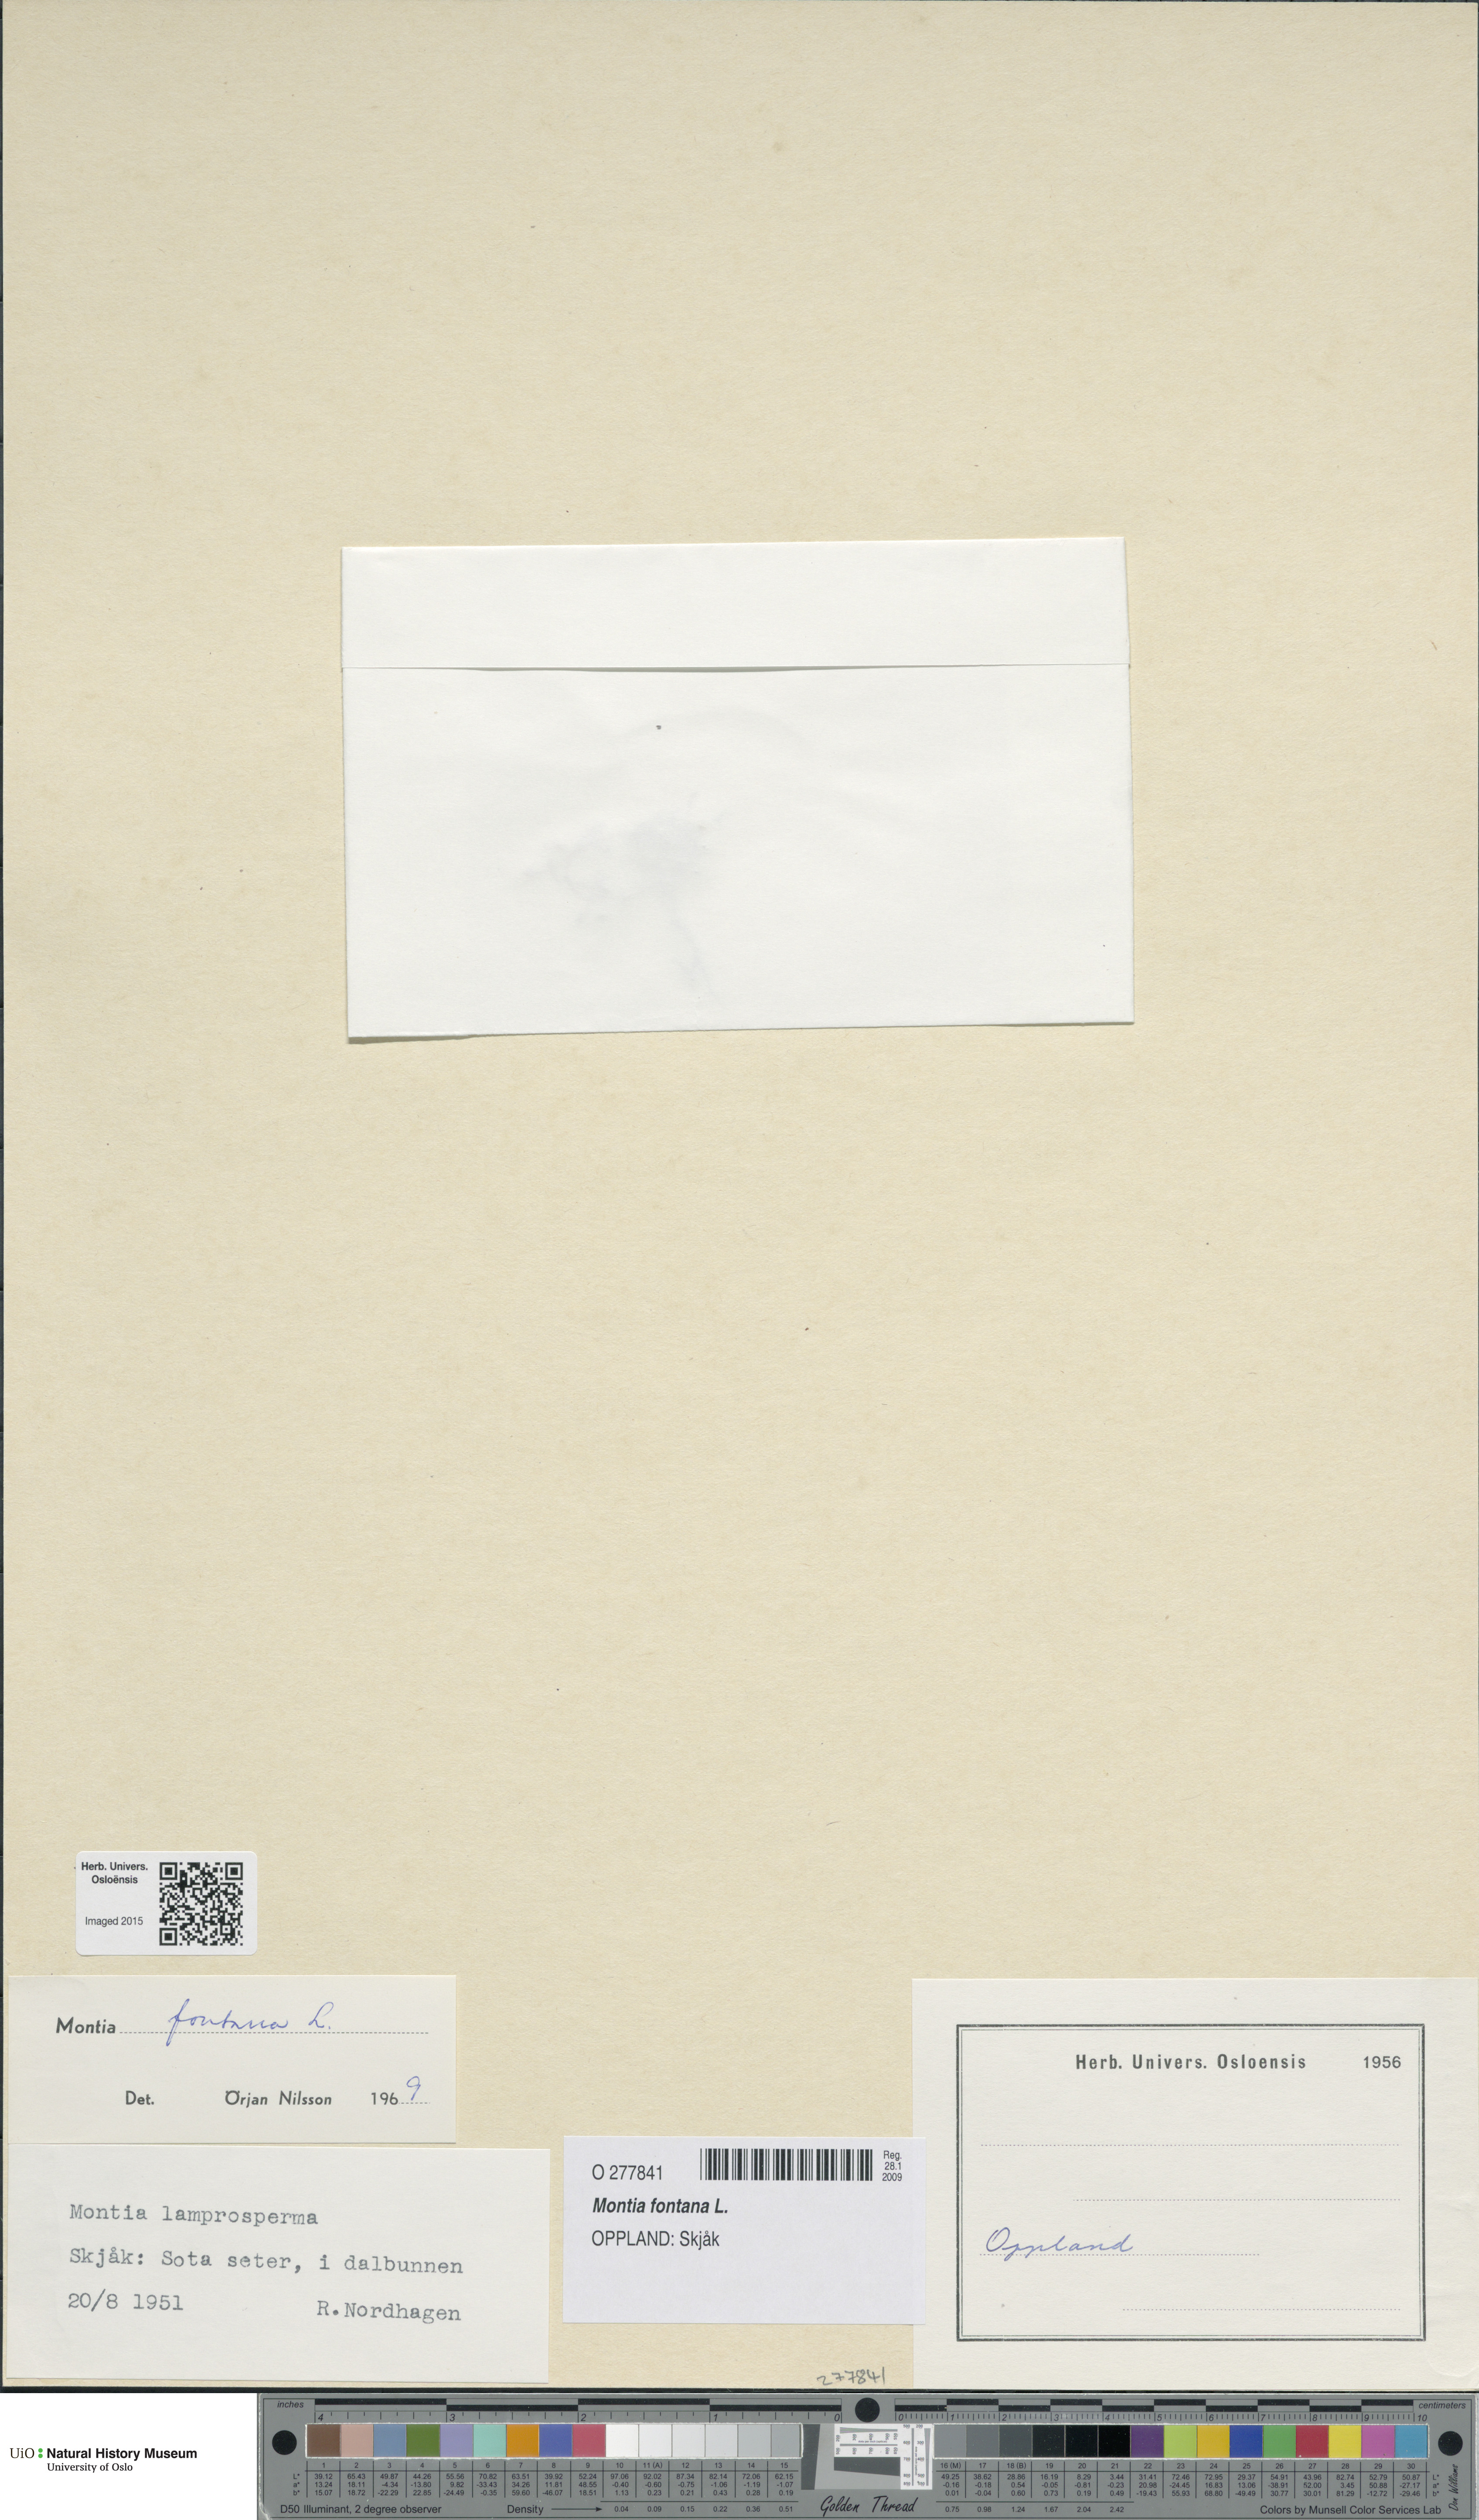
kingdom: Plantae
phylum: Tracheophyta
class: Magnoliopsida
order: Caryophyllales
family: Montiaceae
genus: Montia
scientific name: Montia fontana
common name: Blinks
